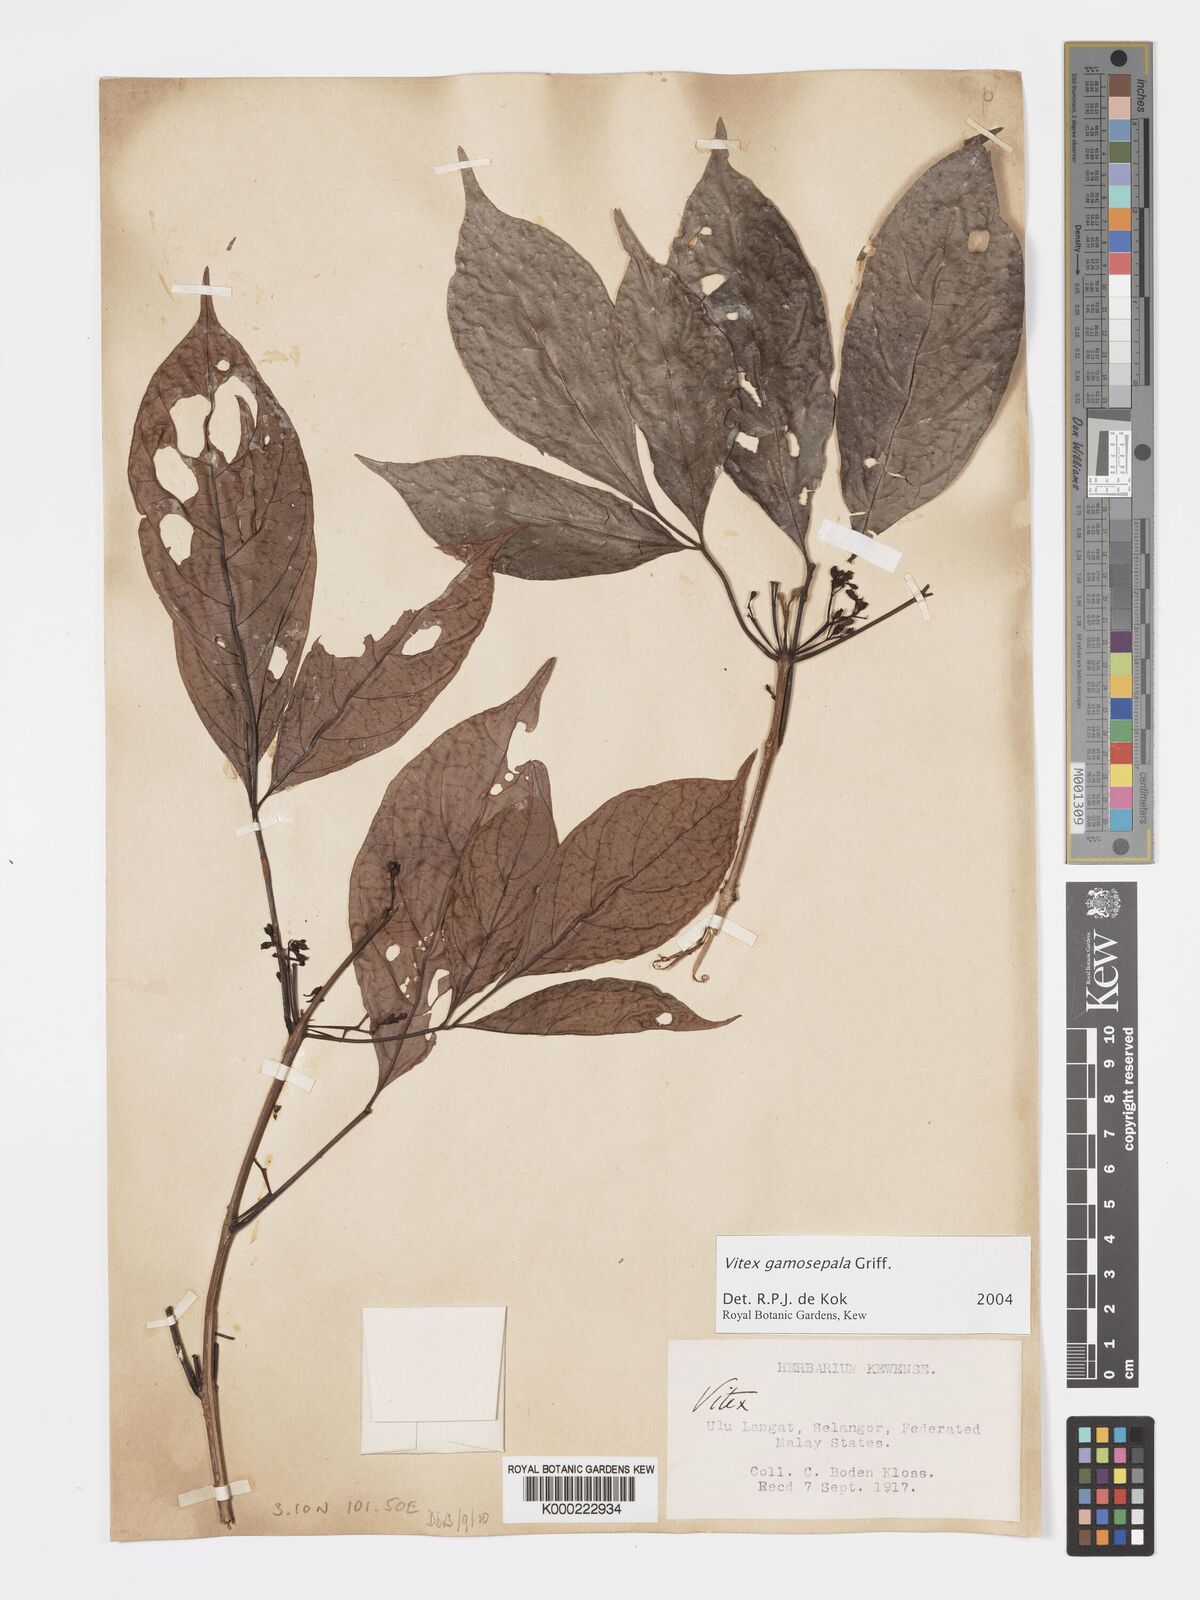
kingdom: Plantae
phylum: Tracheophyta
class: Magnoliopsida
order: Lamiales
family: Lamiaceae
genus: Vitex
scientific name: Vitex gamosepala
